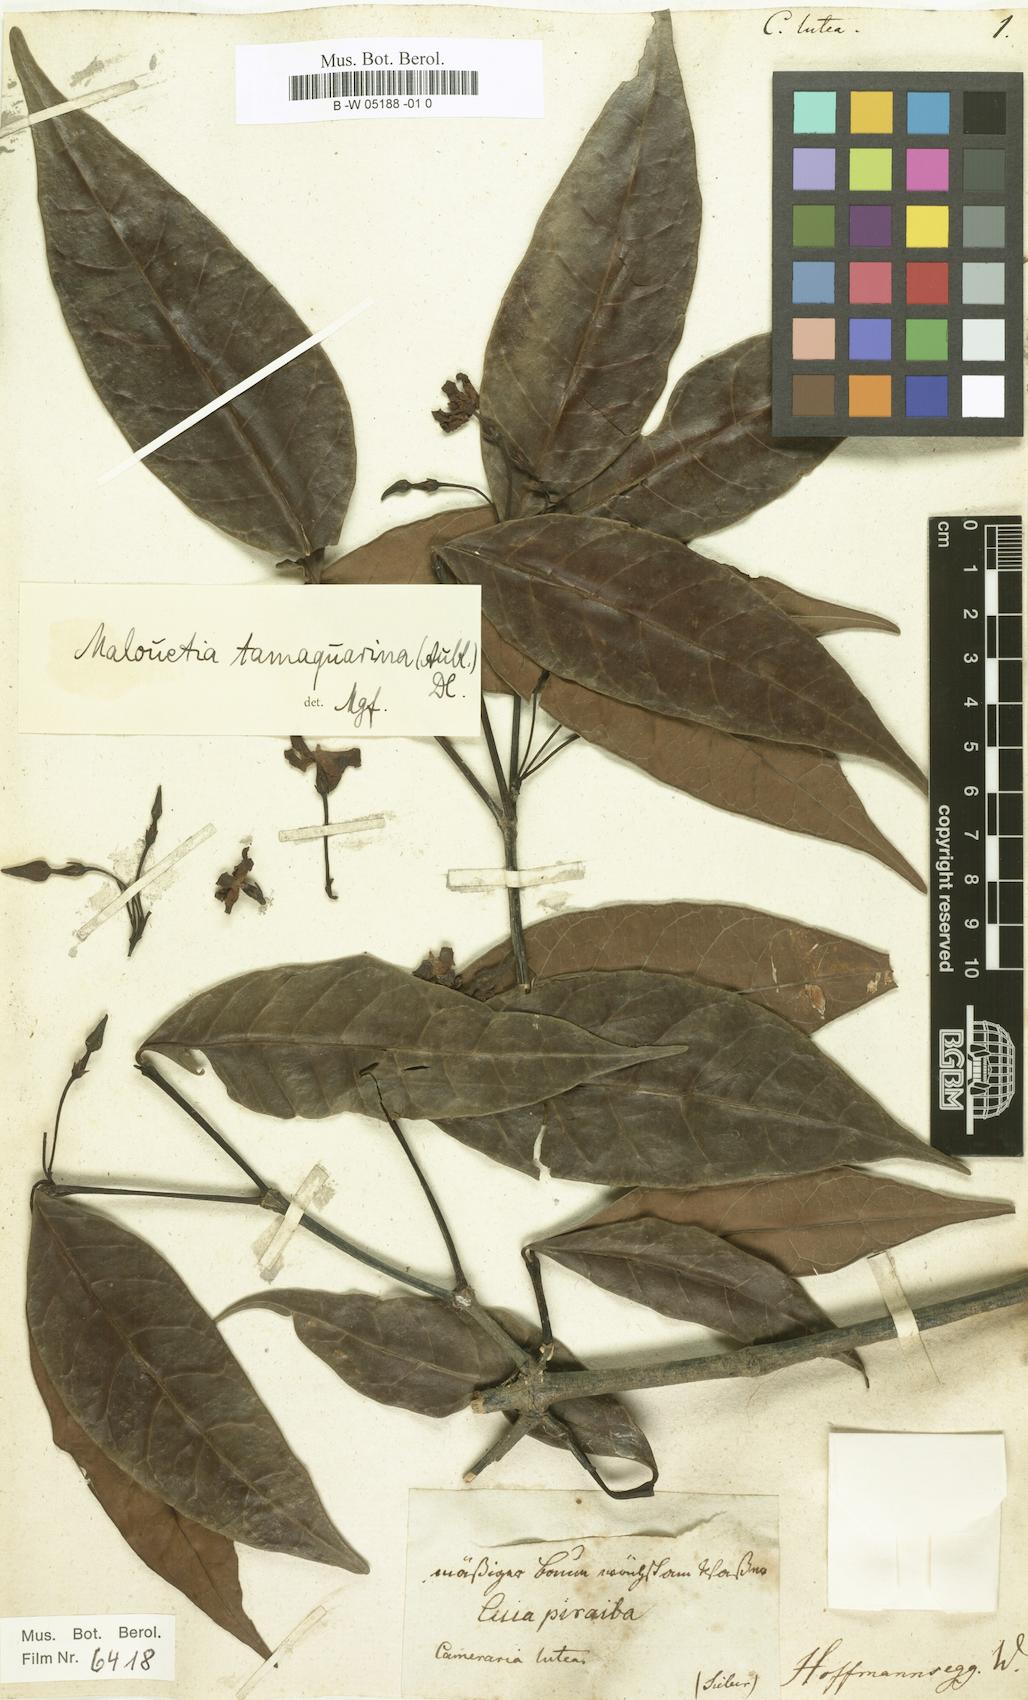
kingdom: Plantae
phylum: Tracheophyta
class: Magnoliopsida
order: Gentianales
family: Apocynaceae
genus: Malouetia
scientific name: Malouetia tamaquarina
